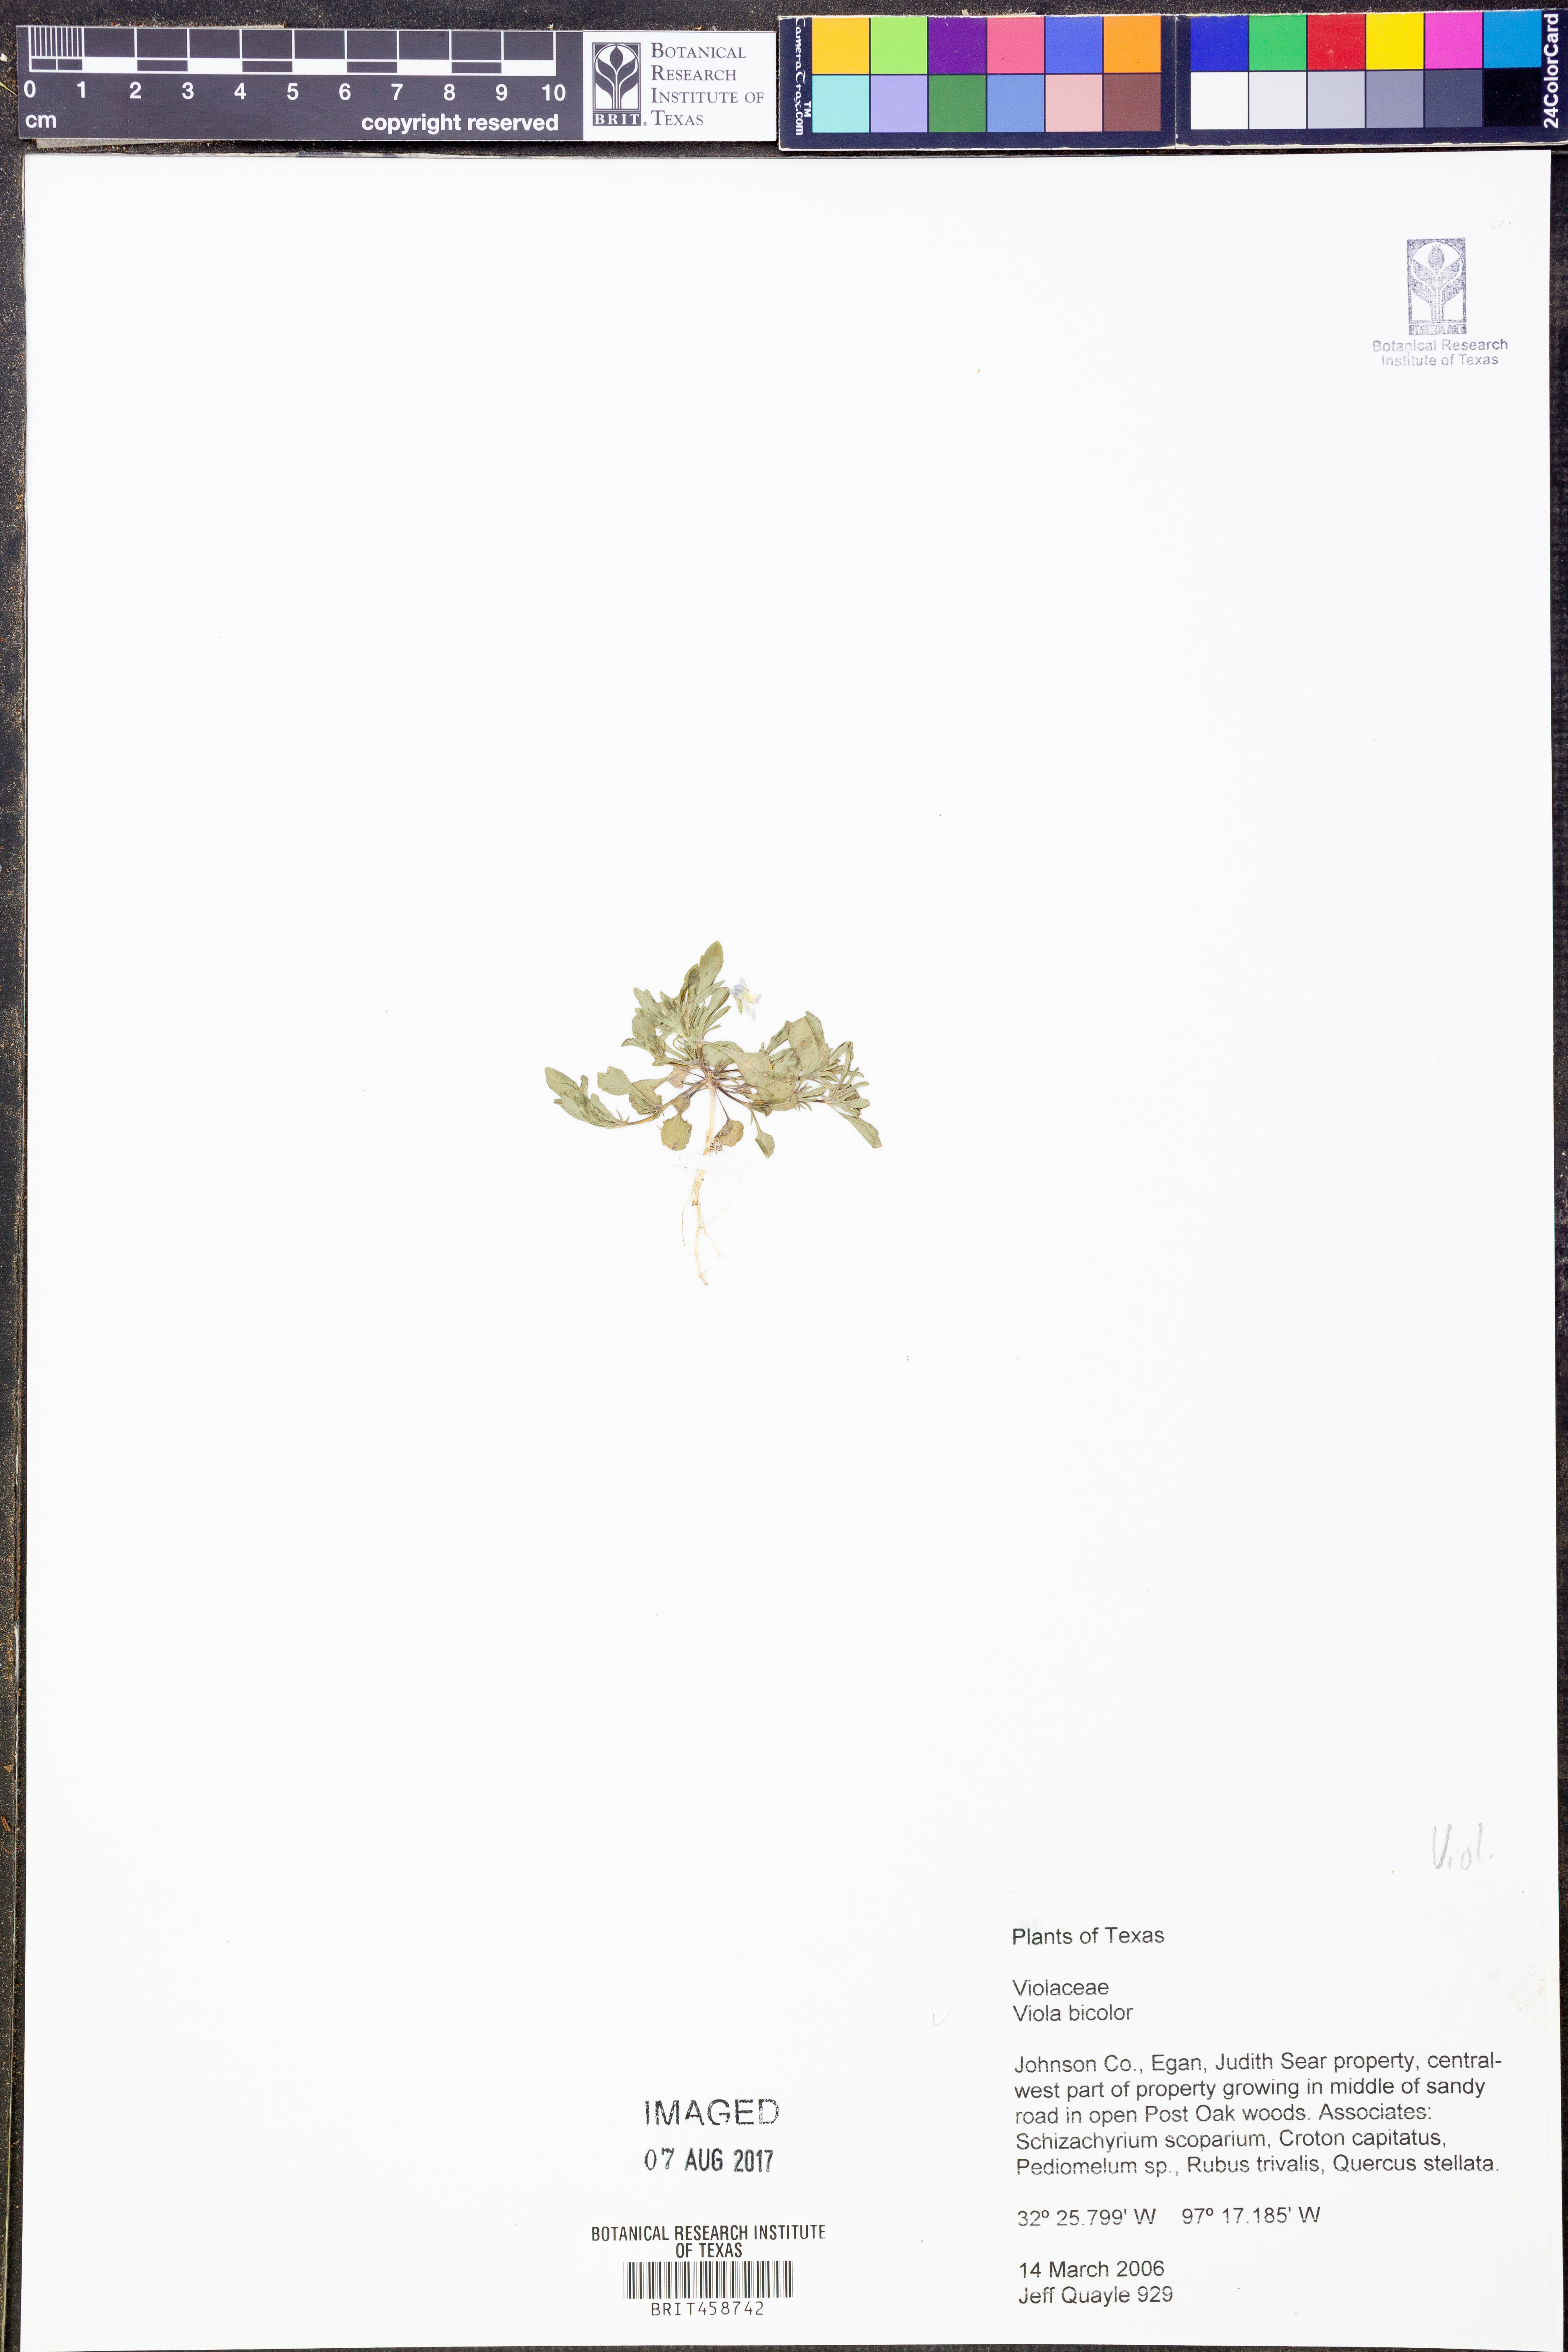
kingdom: Plantae
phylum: Tracheophyta
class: Magnoliopsida
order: Malpighiales
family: Violaceae
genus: Viola
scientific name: Viola rafinesquei
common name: American field pansy
